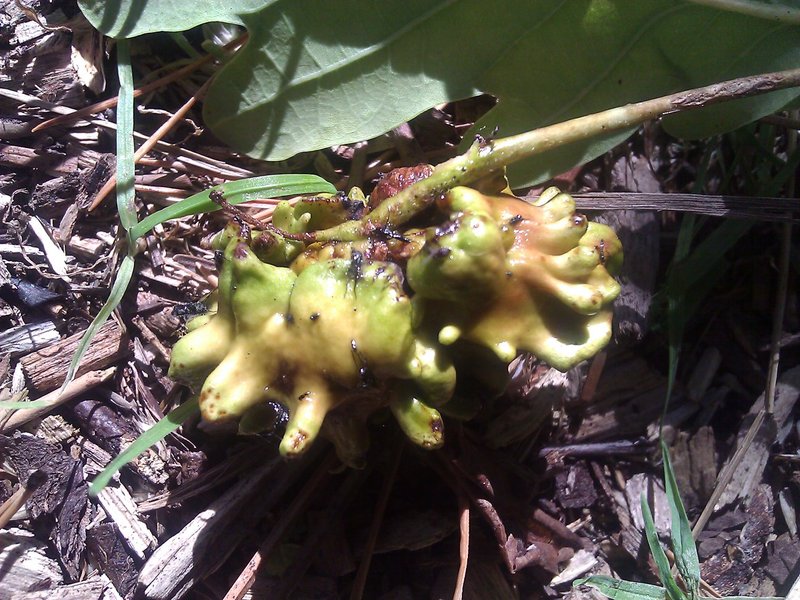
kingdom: Animalia
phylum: Arthropoda
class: Insecta
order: Hymenoptera
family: Cynipidae
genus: Andricus
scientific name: Andricus quercuscalicis
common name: Knopper gall
